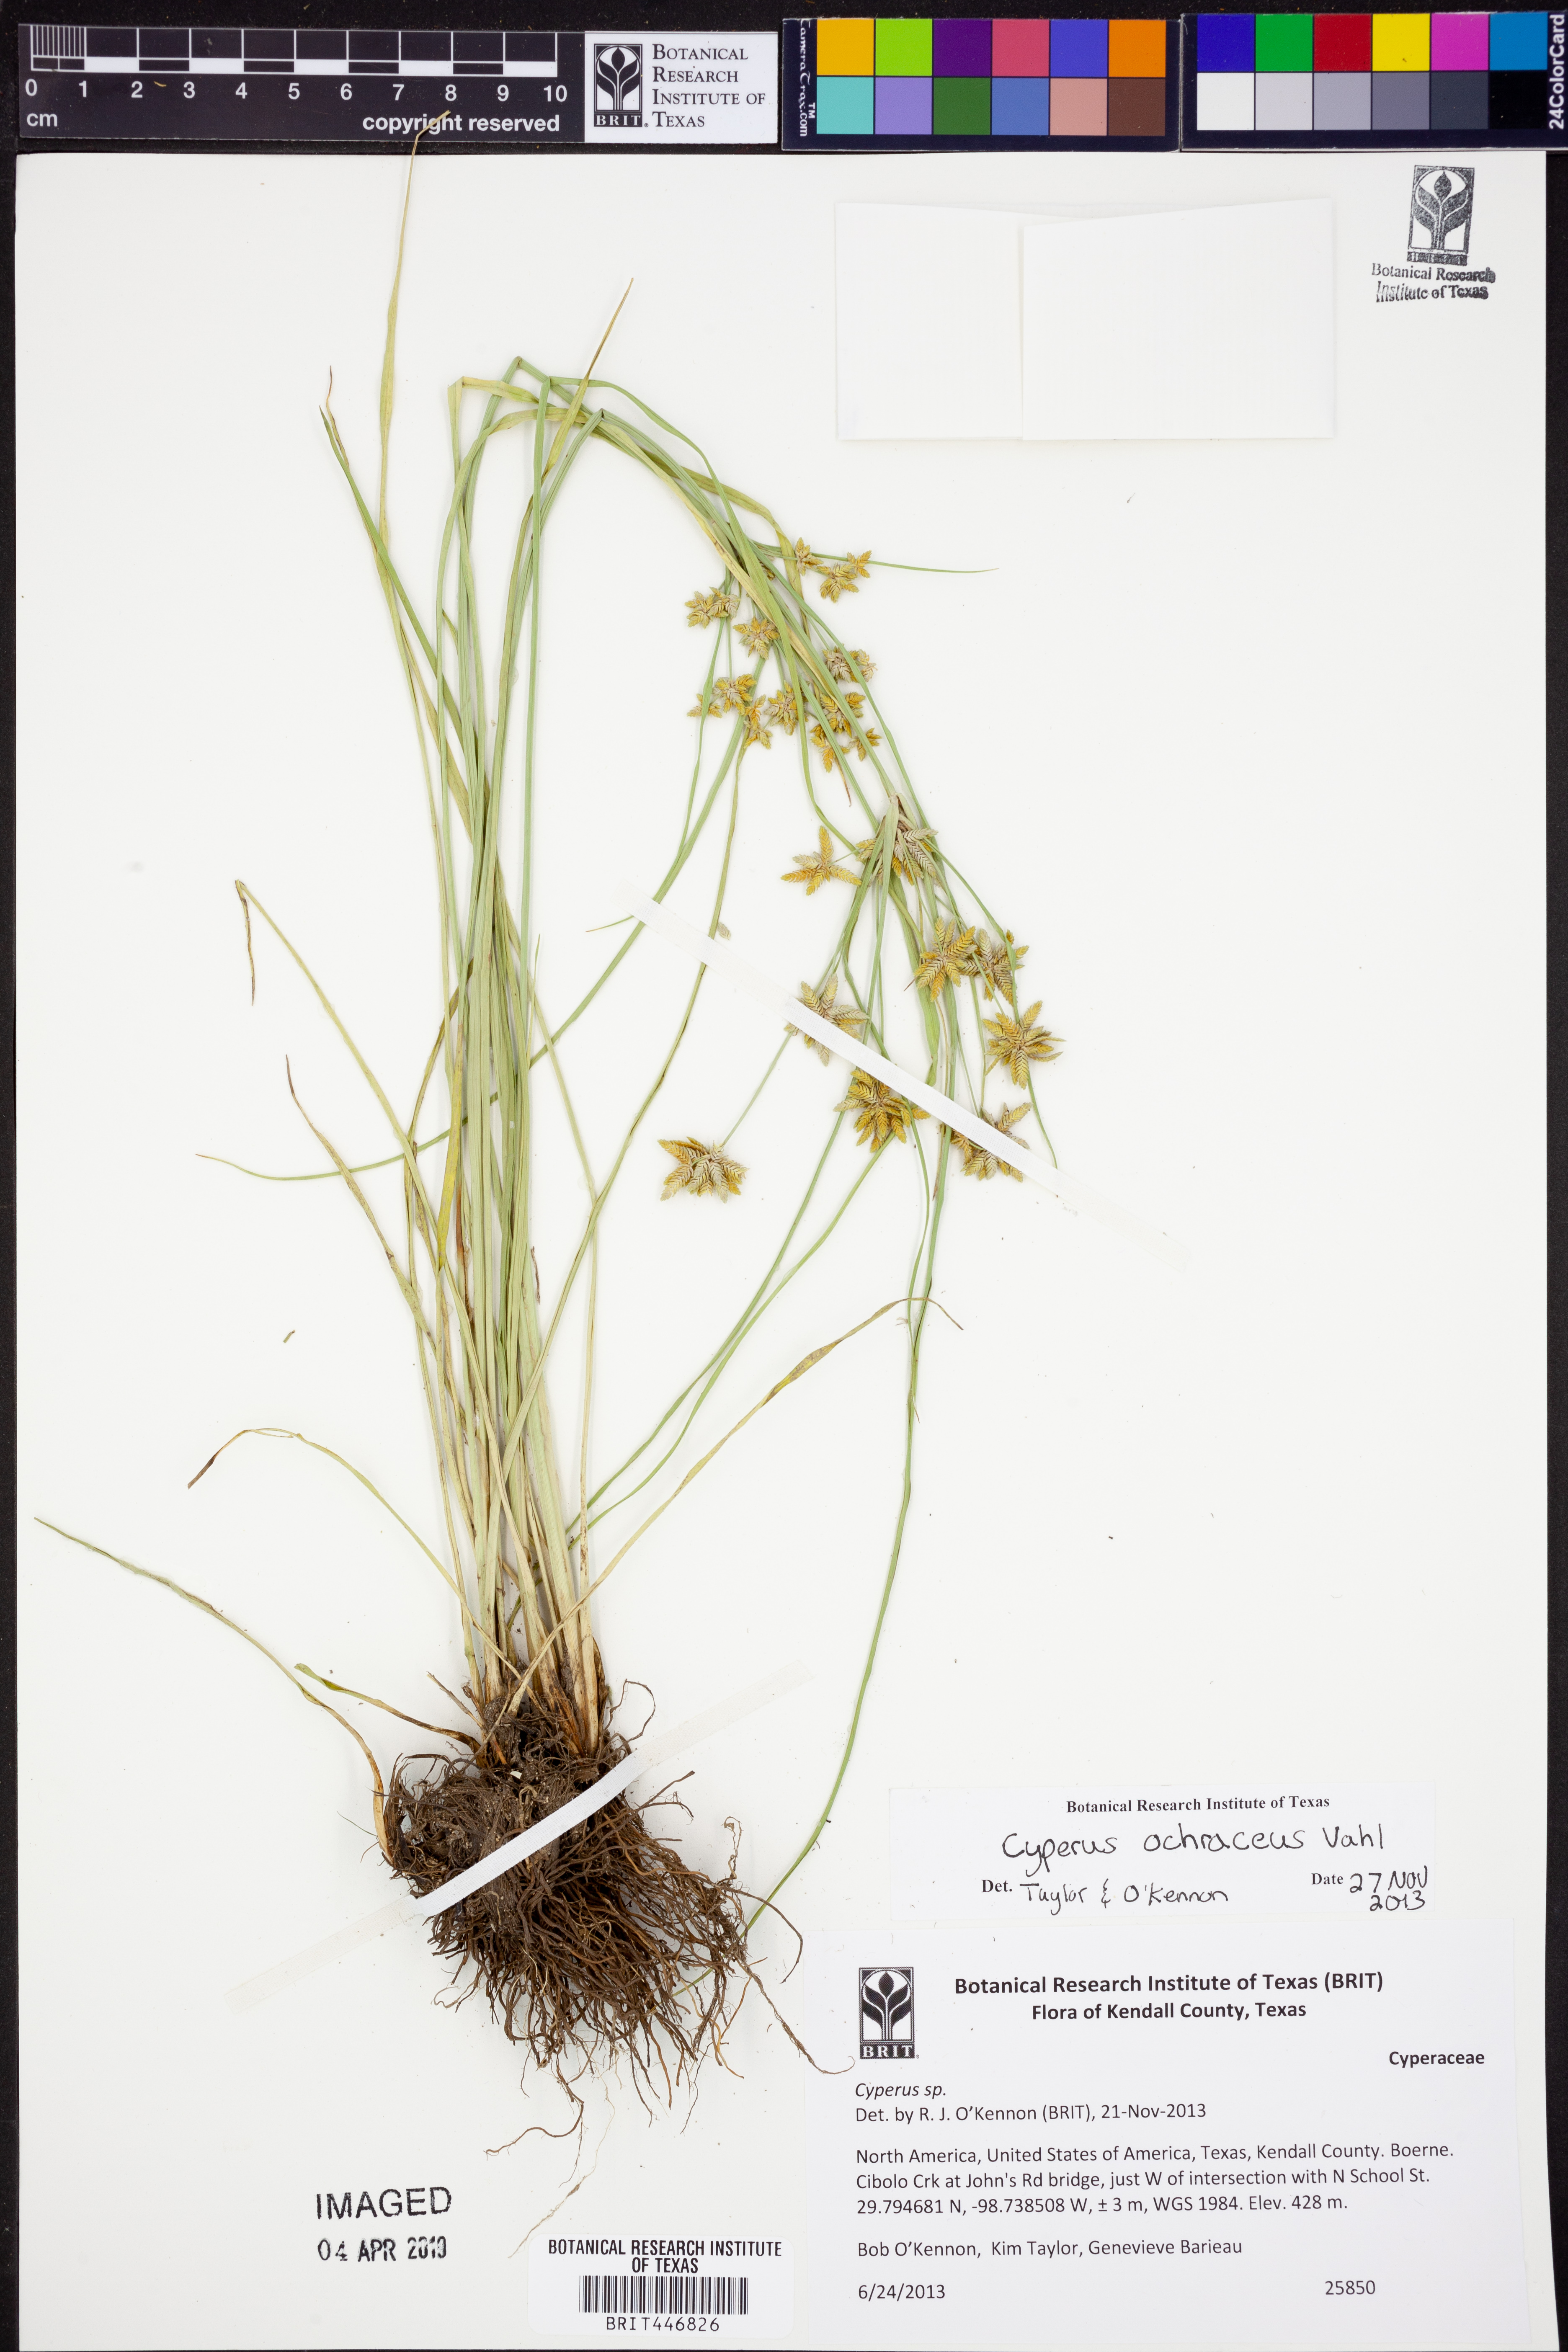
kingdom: Plantae
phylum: Tracheophyta
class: Liliopsida
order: Poales
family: Cyperaceae
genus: Cyperus
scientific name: Cyperus ochraceus
